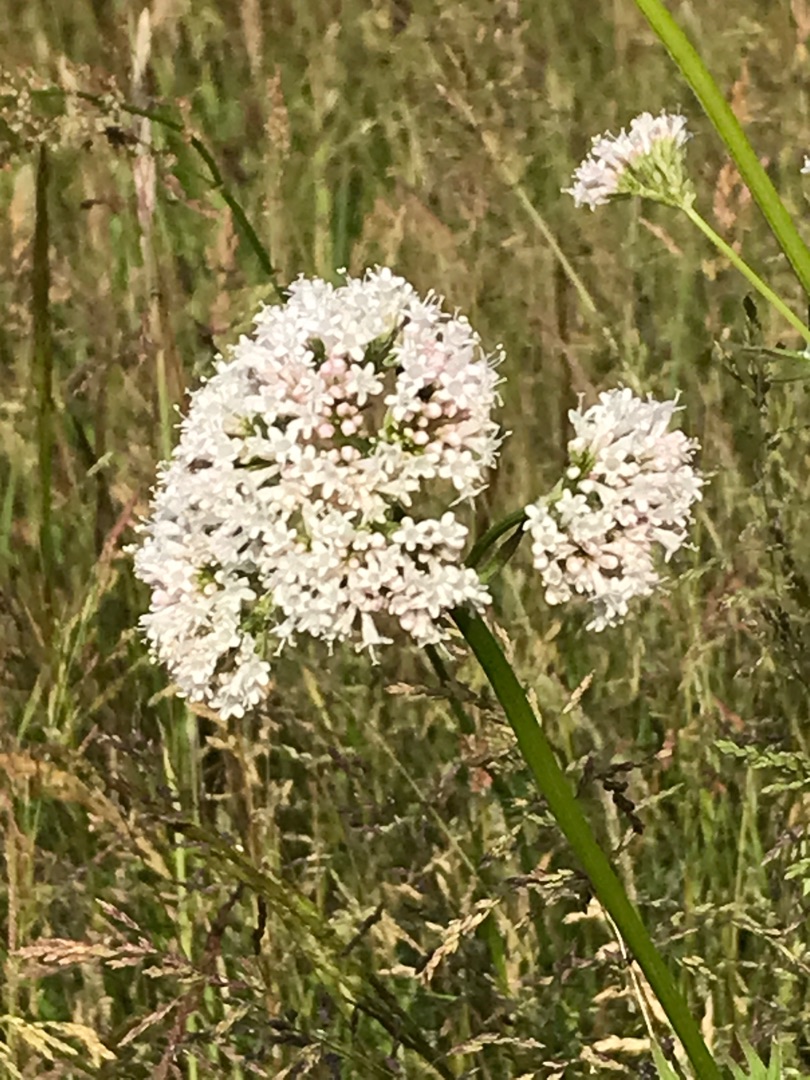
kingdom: Plantae
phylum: Tracheophyta
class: Magnoliopsida
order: Dipsacales
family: Caprifoliaceae
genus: Valeriana
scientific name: Valeriana sambucifolia
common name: Hyldebladet baldrian
